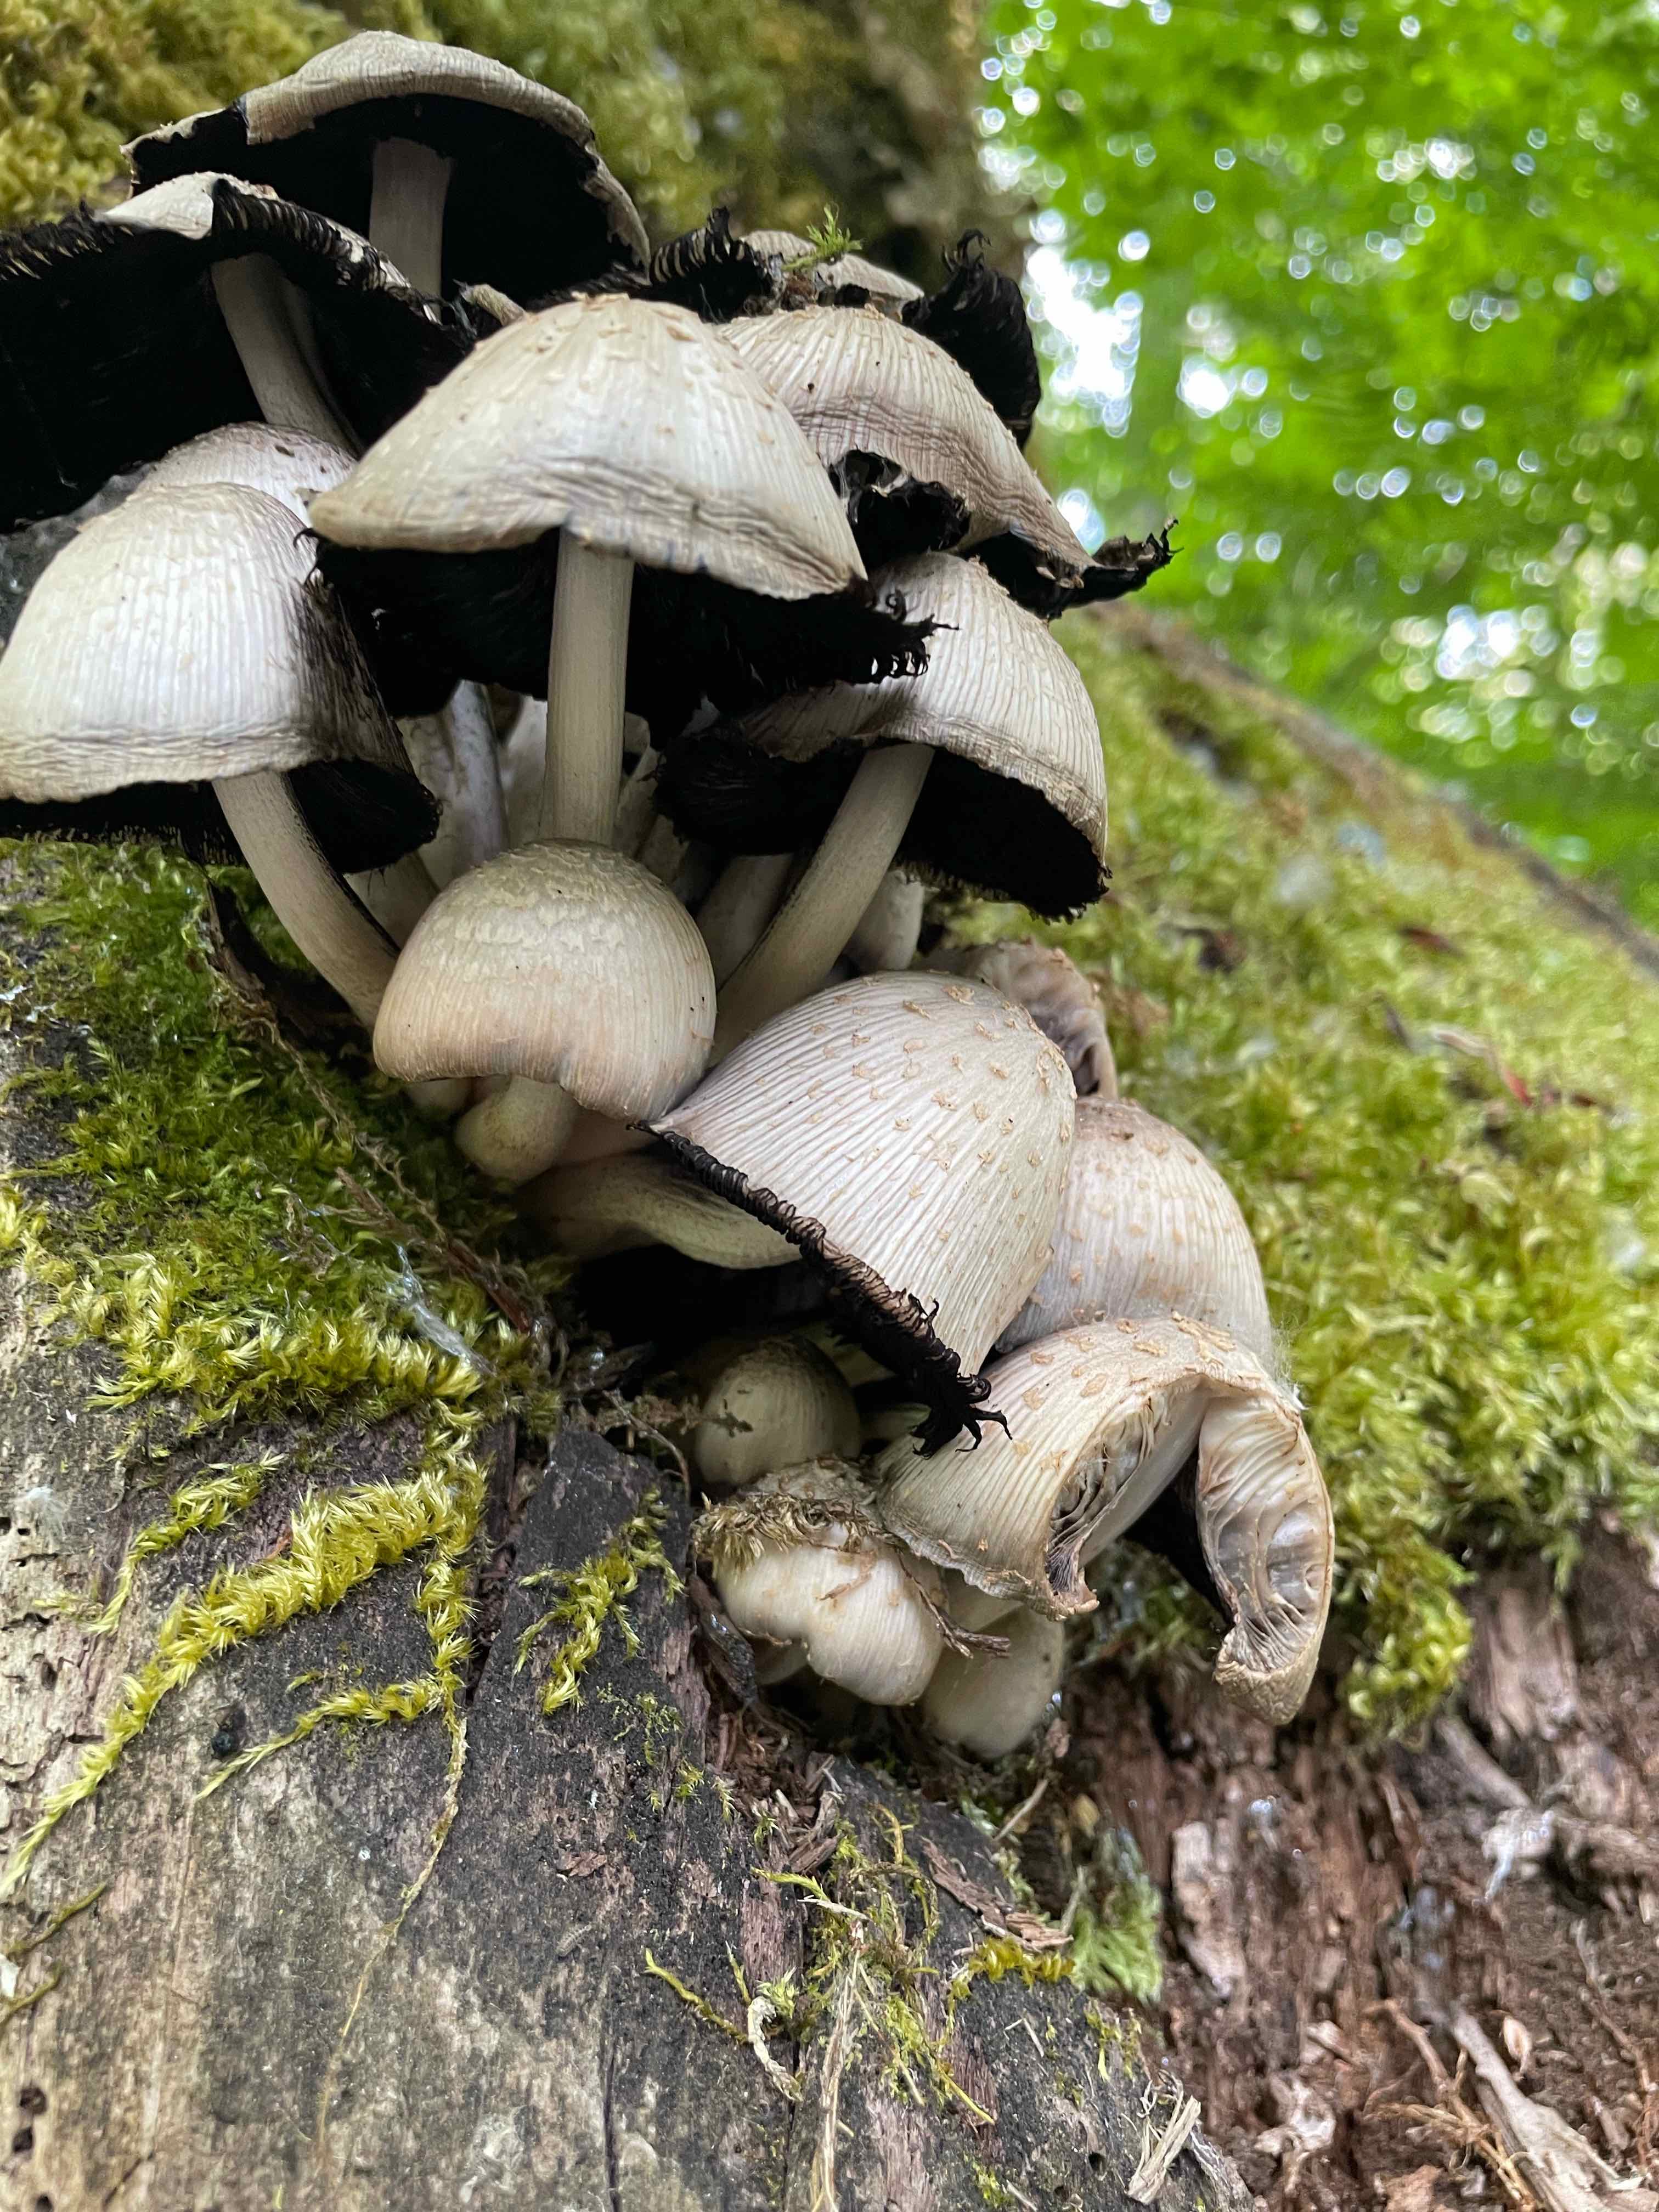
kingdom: Fungi
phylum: Basidiomycota
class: Agaricomycetes
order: Agaricales
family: Psathyrellaceae
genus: Coprinopsis
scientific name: Coprinopsis
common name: blækhat
